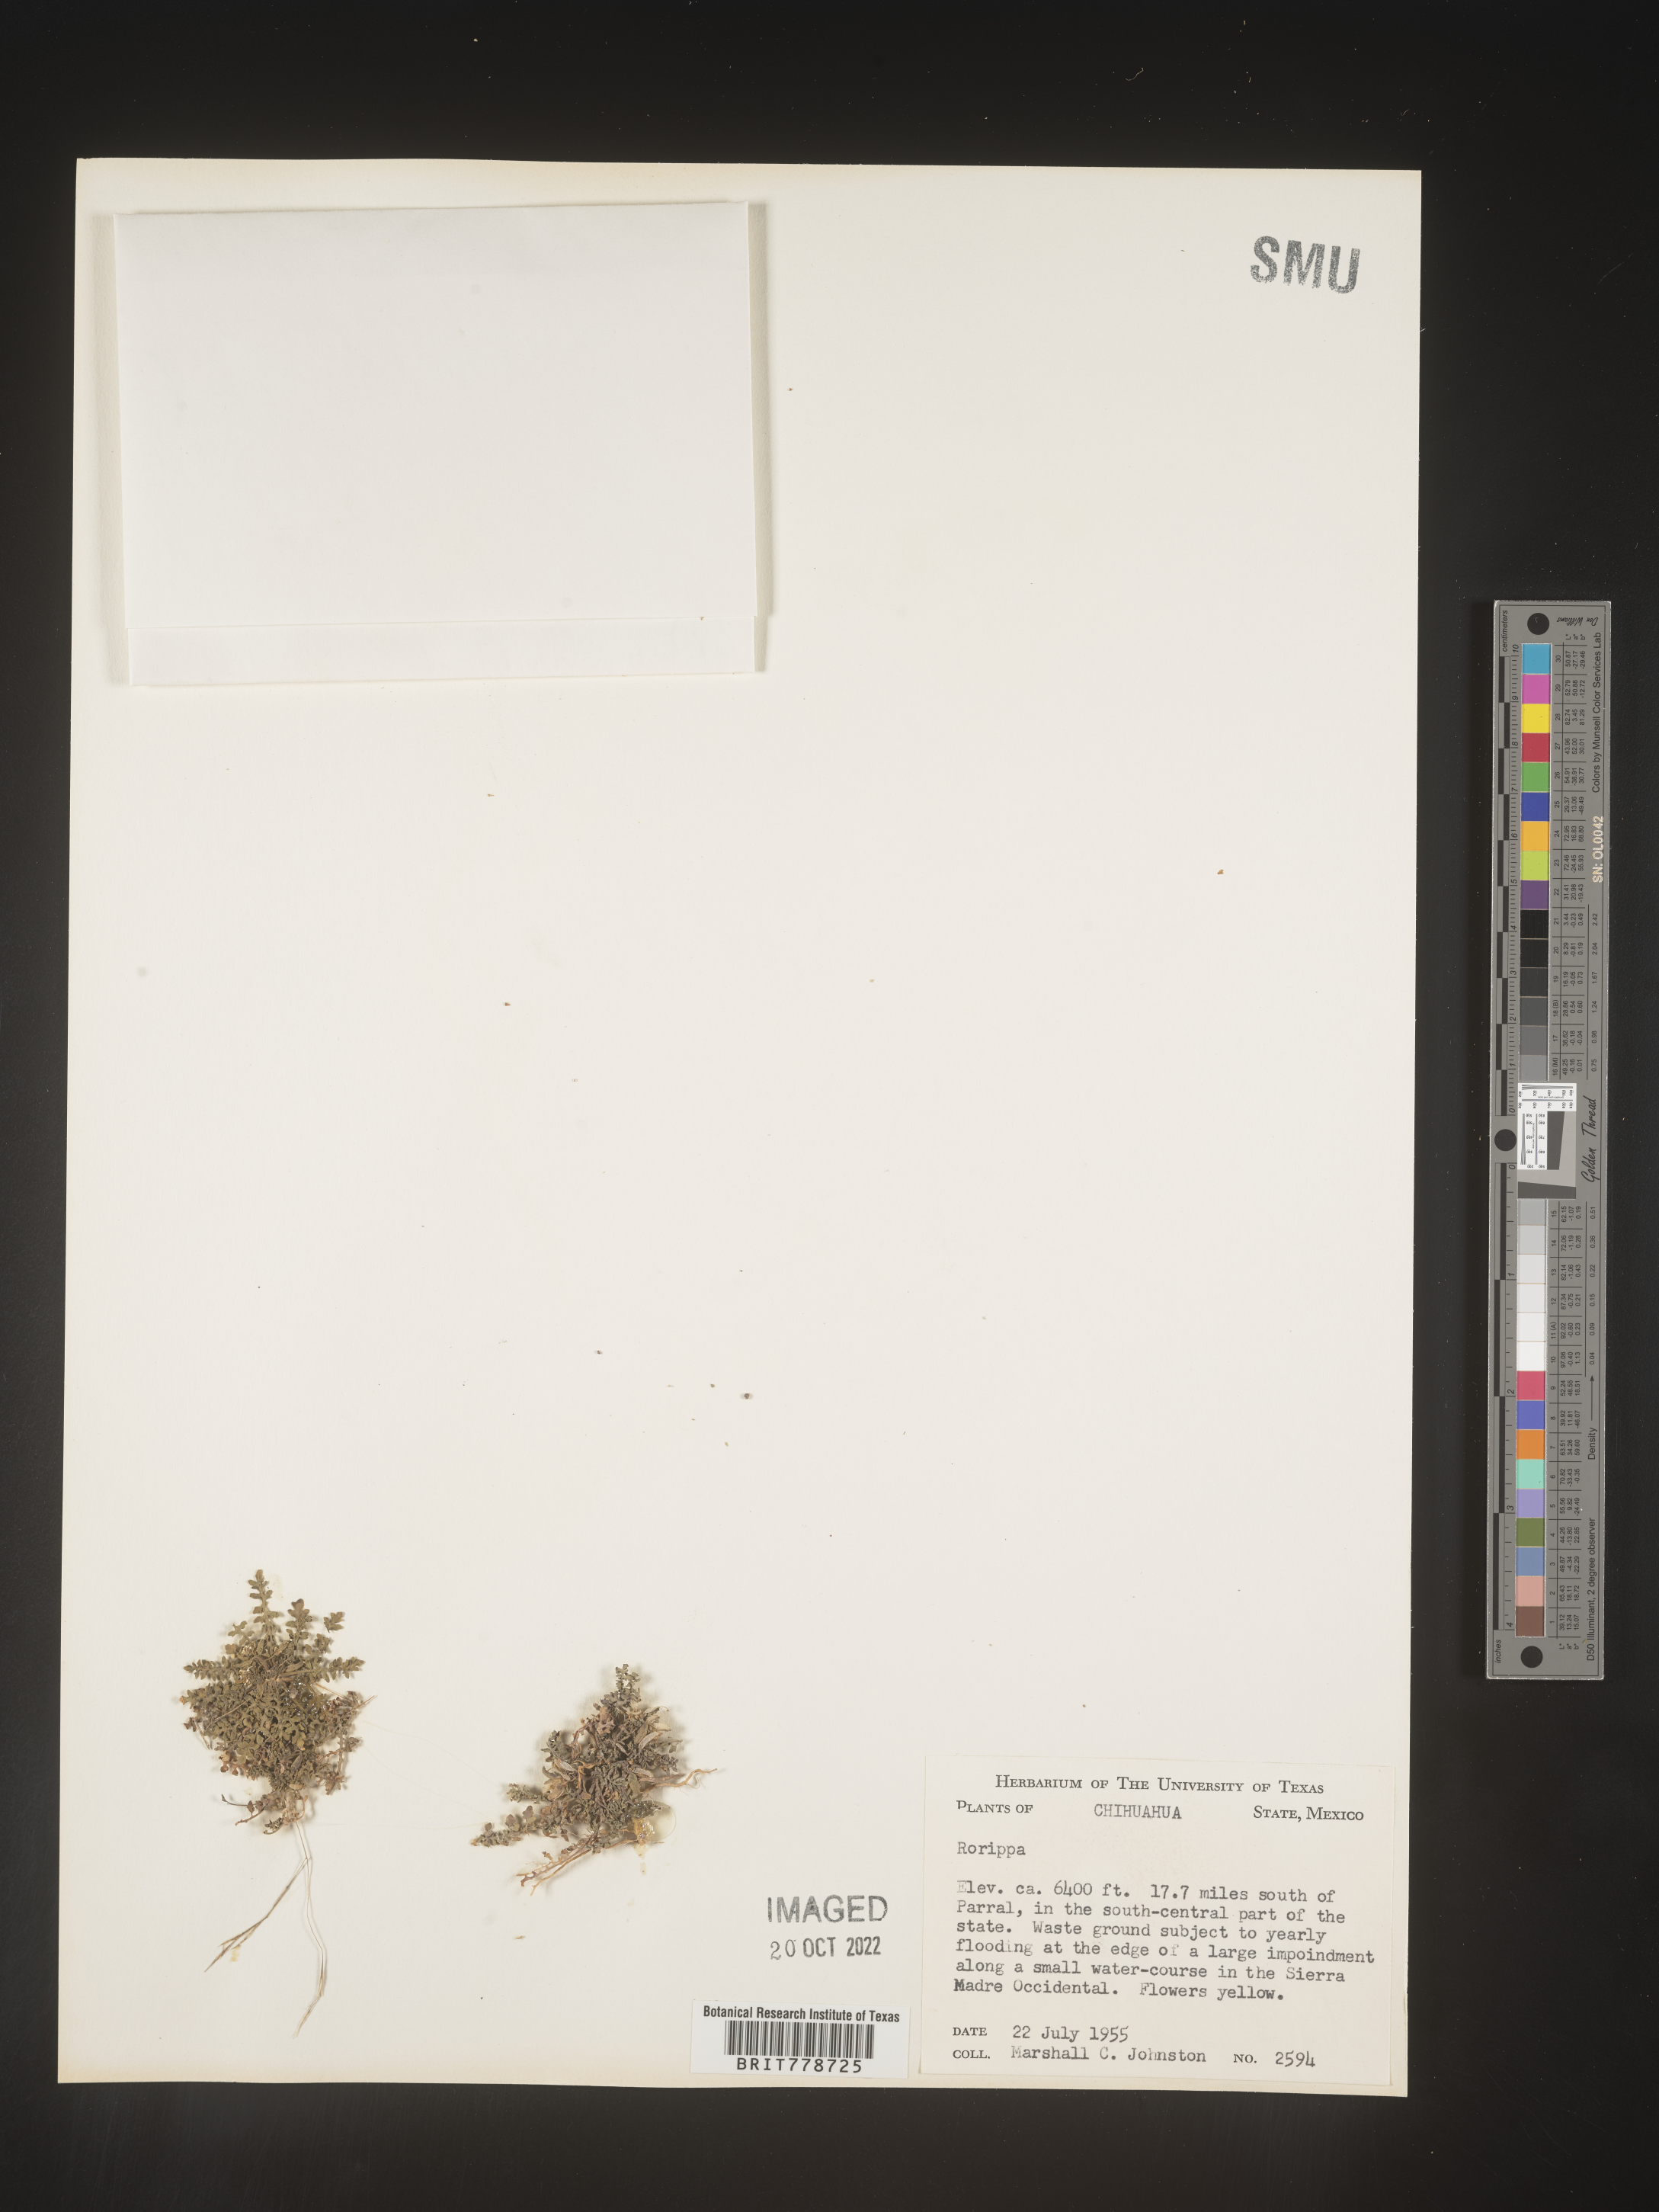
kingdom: Plantae
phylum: Tracheophyta
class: Magnoliopsida
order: Brassicales
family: Brassicaceae
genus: Rorippa
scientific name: Rorippa
